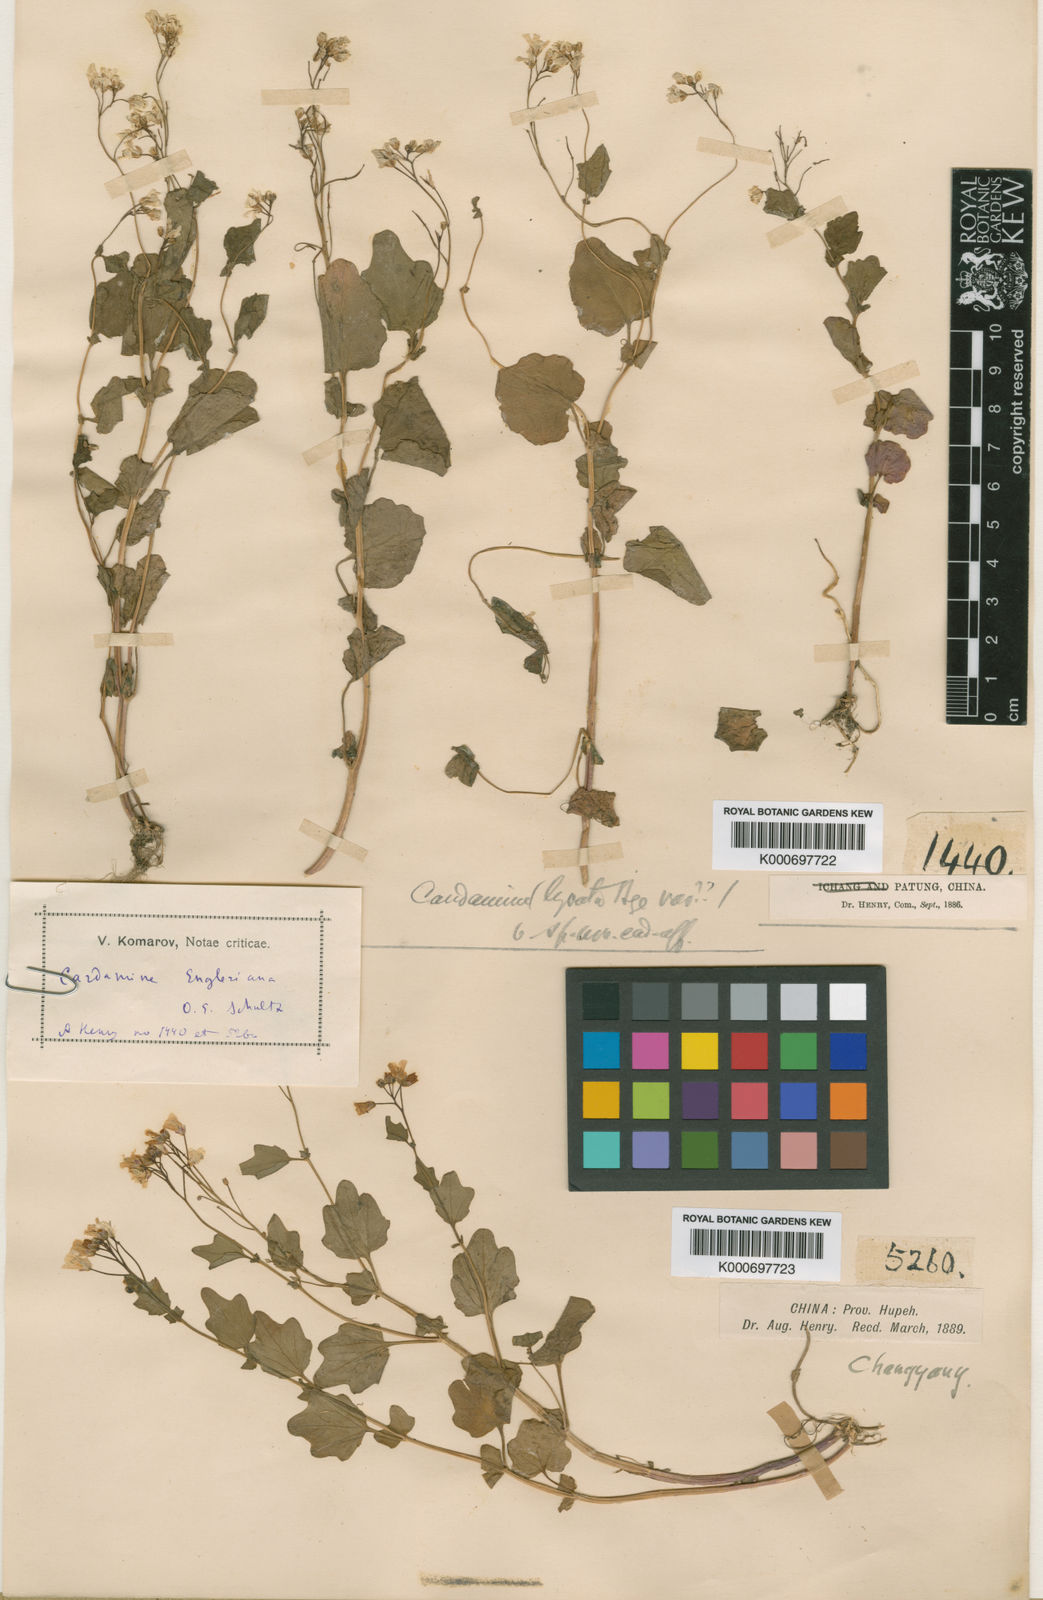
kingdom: Plantae
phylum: Tracheophyta
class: Magnoliopsida
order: Brassicales
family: Brassicaceae
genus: Cardamine
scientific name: Cardamine engleriana
